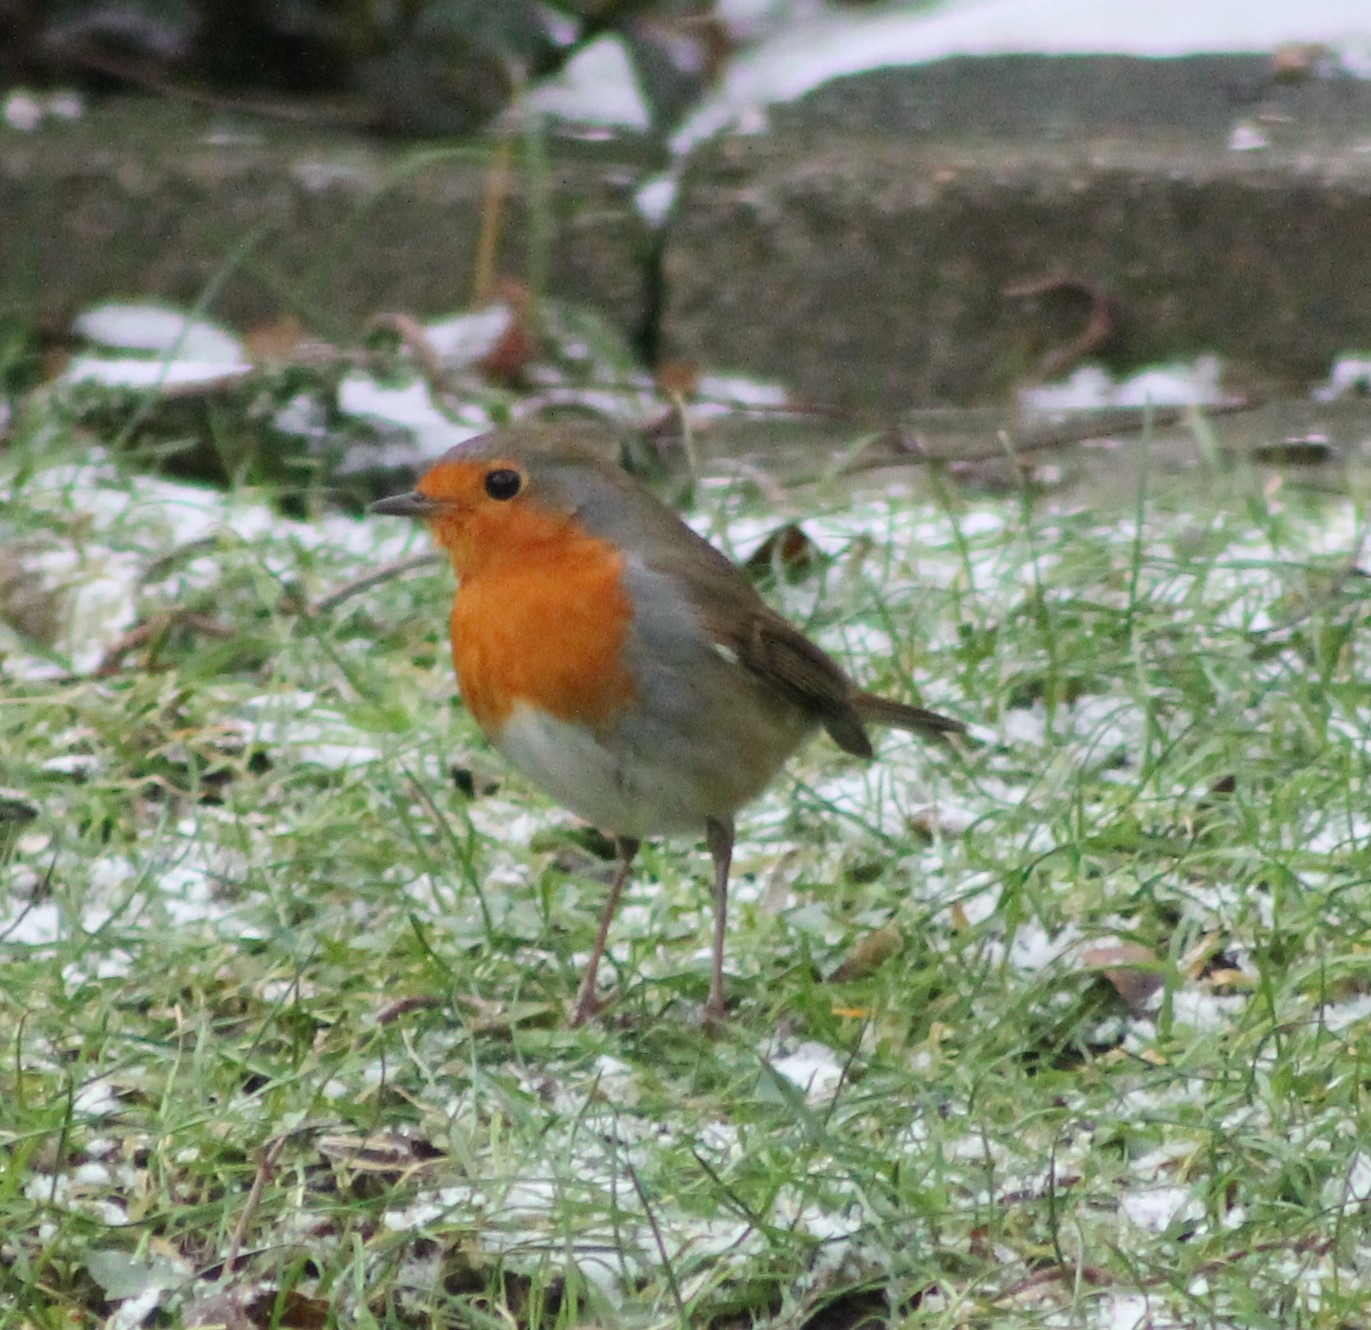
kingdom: Animalia
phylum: Chordata
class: Aves
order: Passeriformes
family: Muscicapidae
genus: Erithacus
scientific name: Erithacus rubecula
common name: Rødhals/rødkælk
